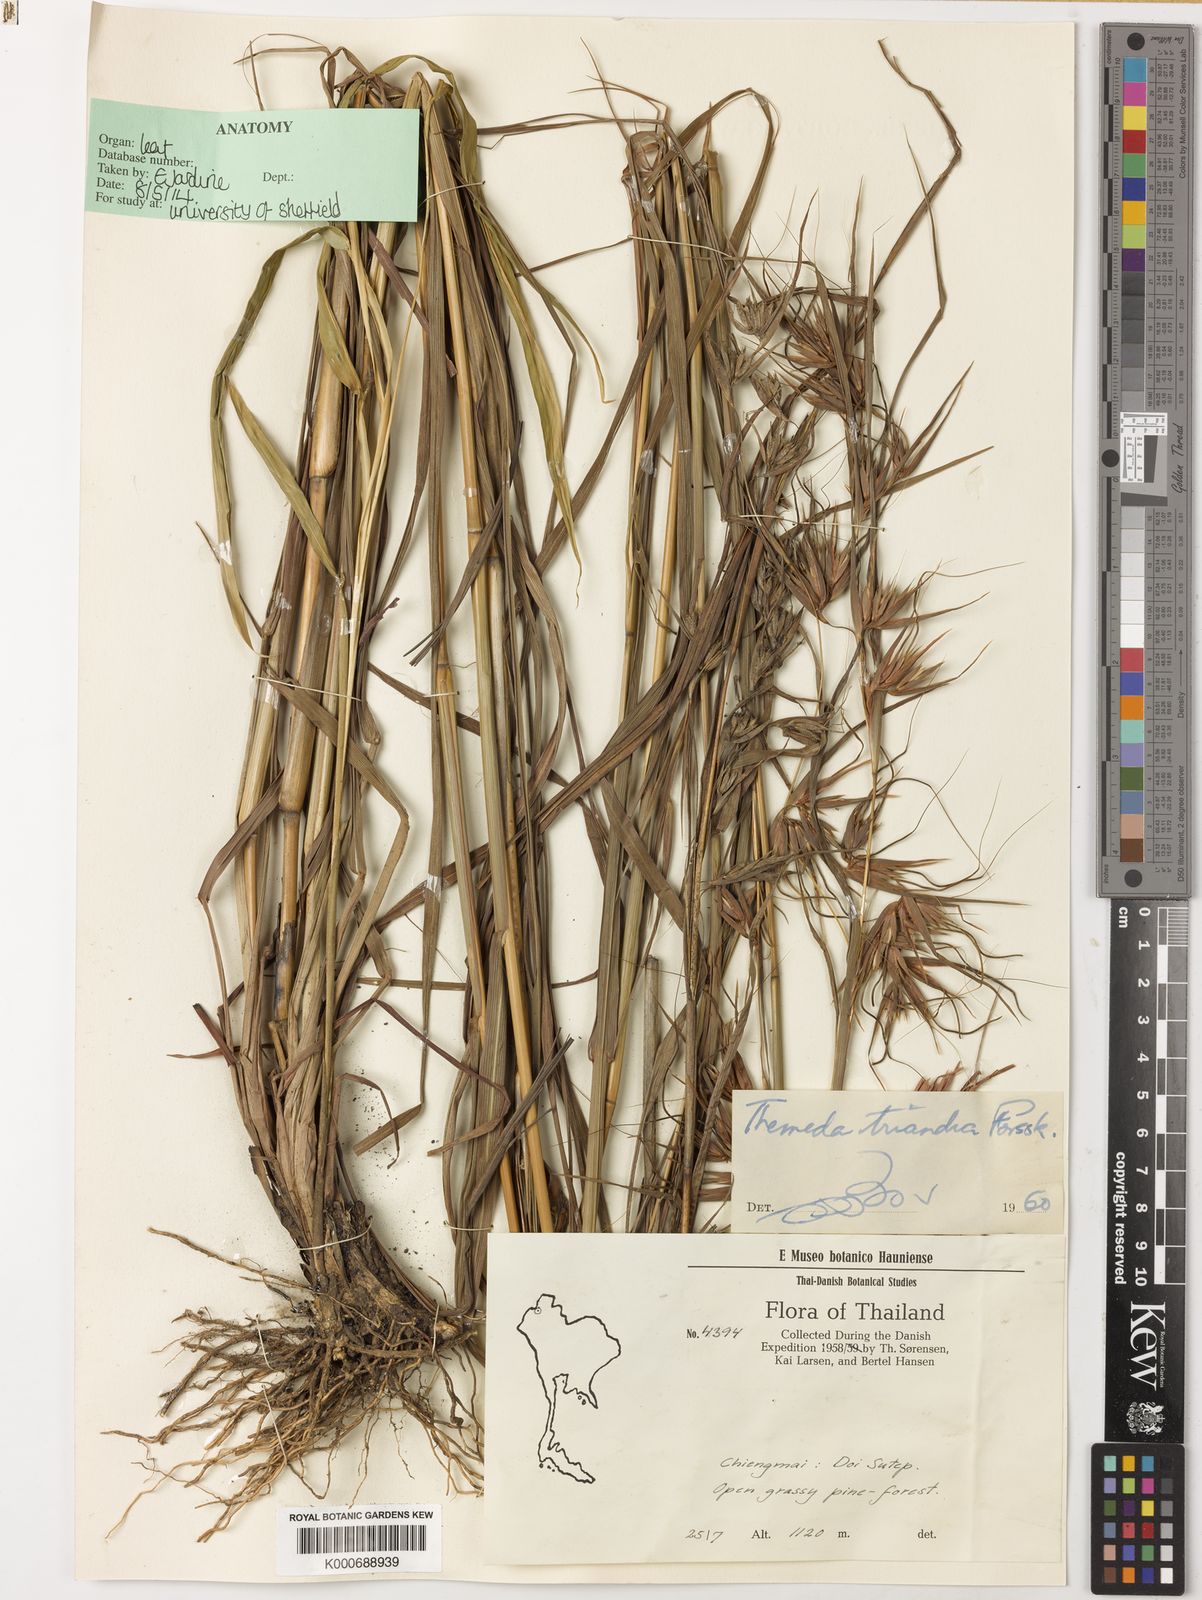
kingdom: Plantae
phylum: Tracheophyta
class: Liliopsida
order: Poales
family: Poaceae
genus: Themeda
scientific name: Themeda triandra
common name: Kangaroo grass
